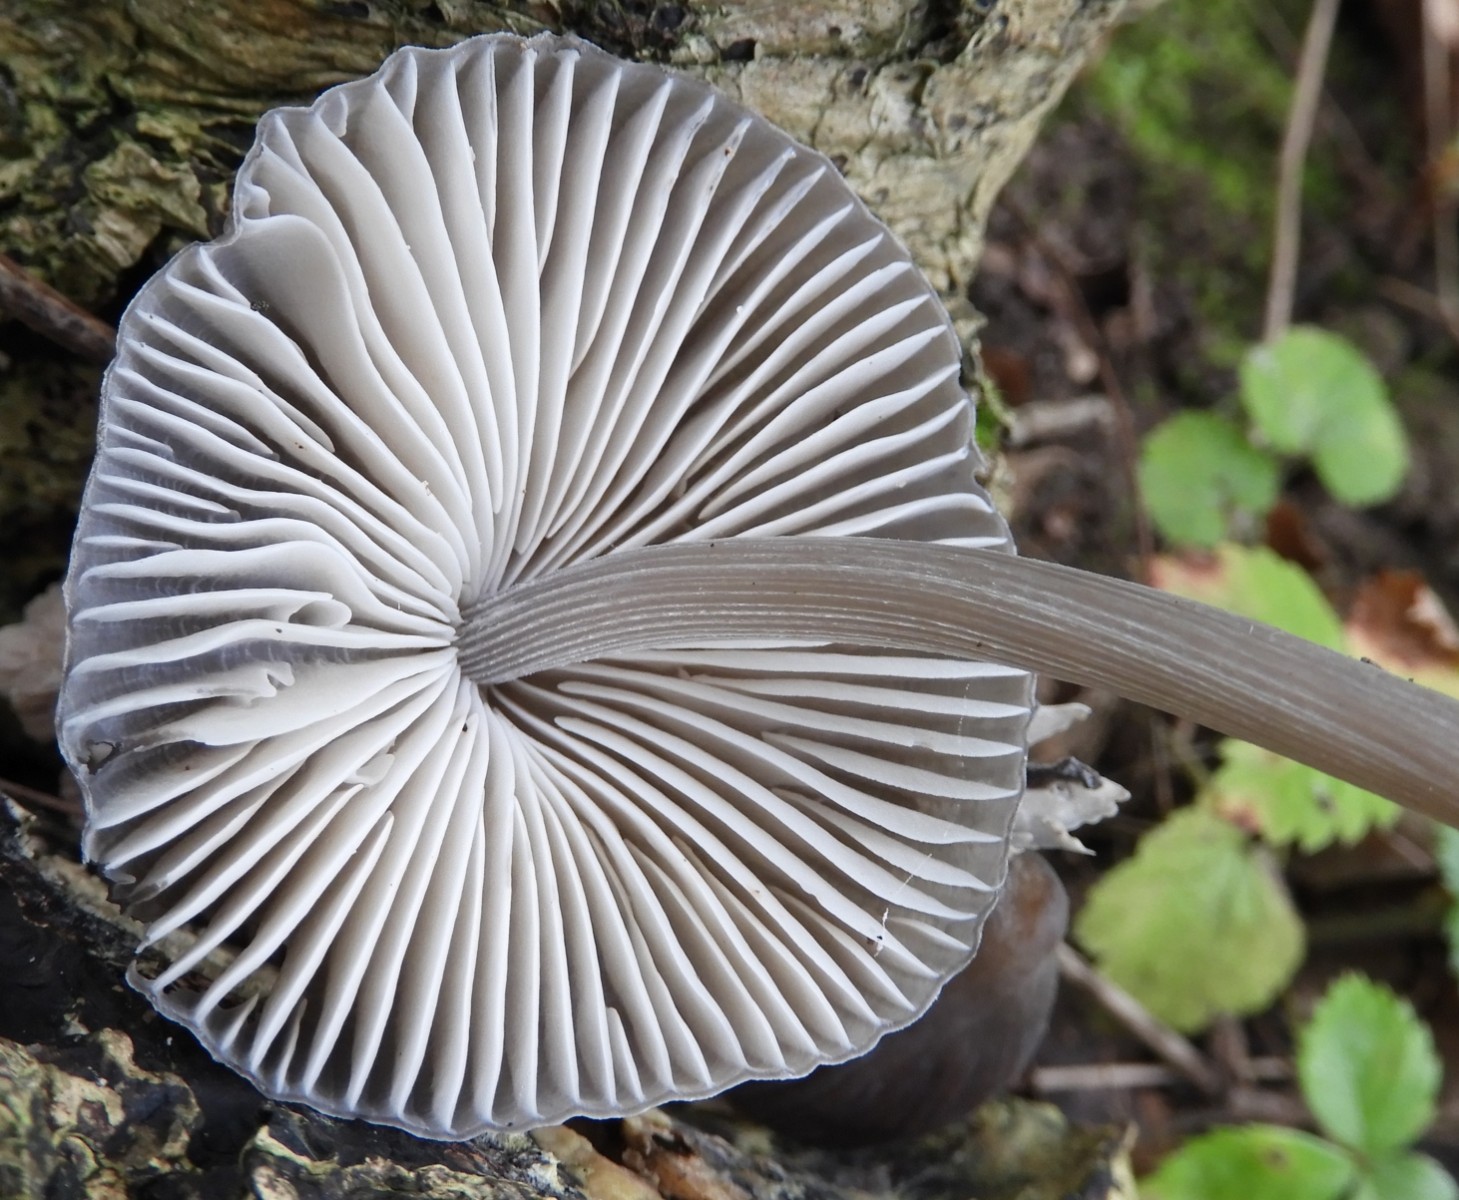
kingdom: Fungi
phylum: Basidiomycota
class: Agaricomycetes
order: Agaricales
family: Mycenaceae
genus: Mycena
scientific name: Mycena polygramma
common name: mangestribet huesvamp
